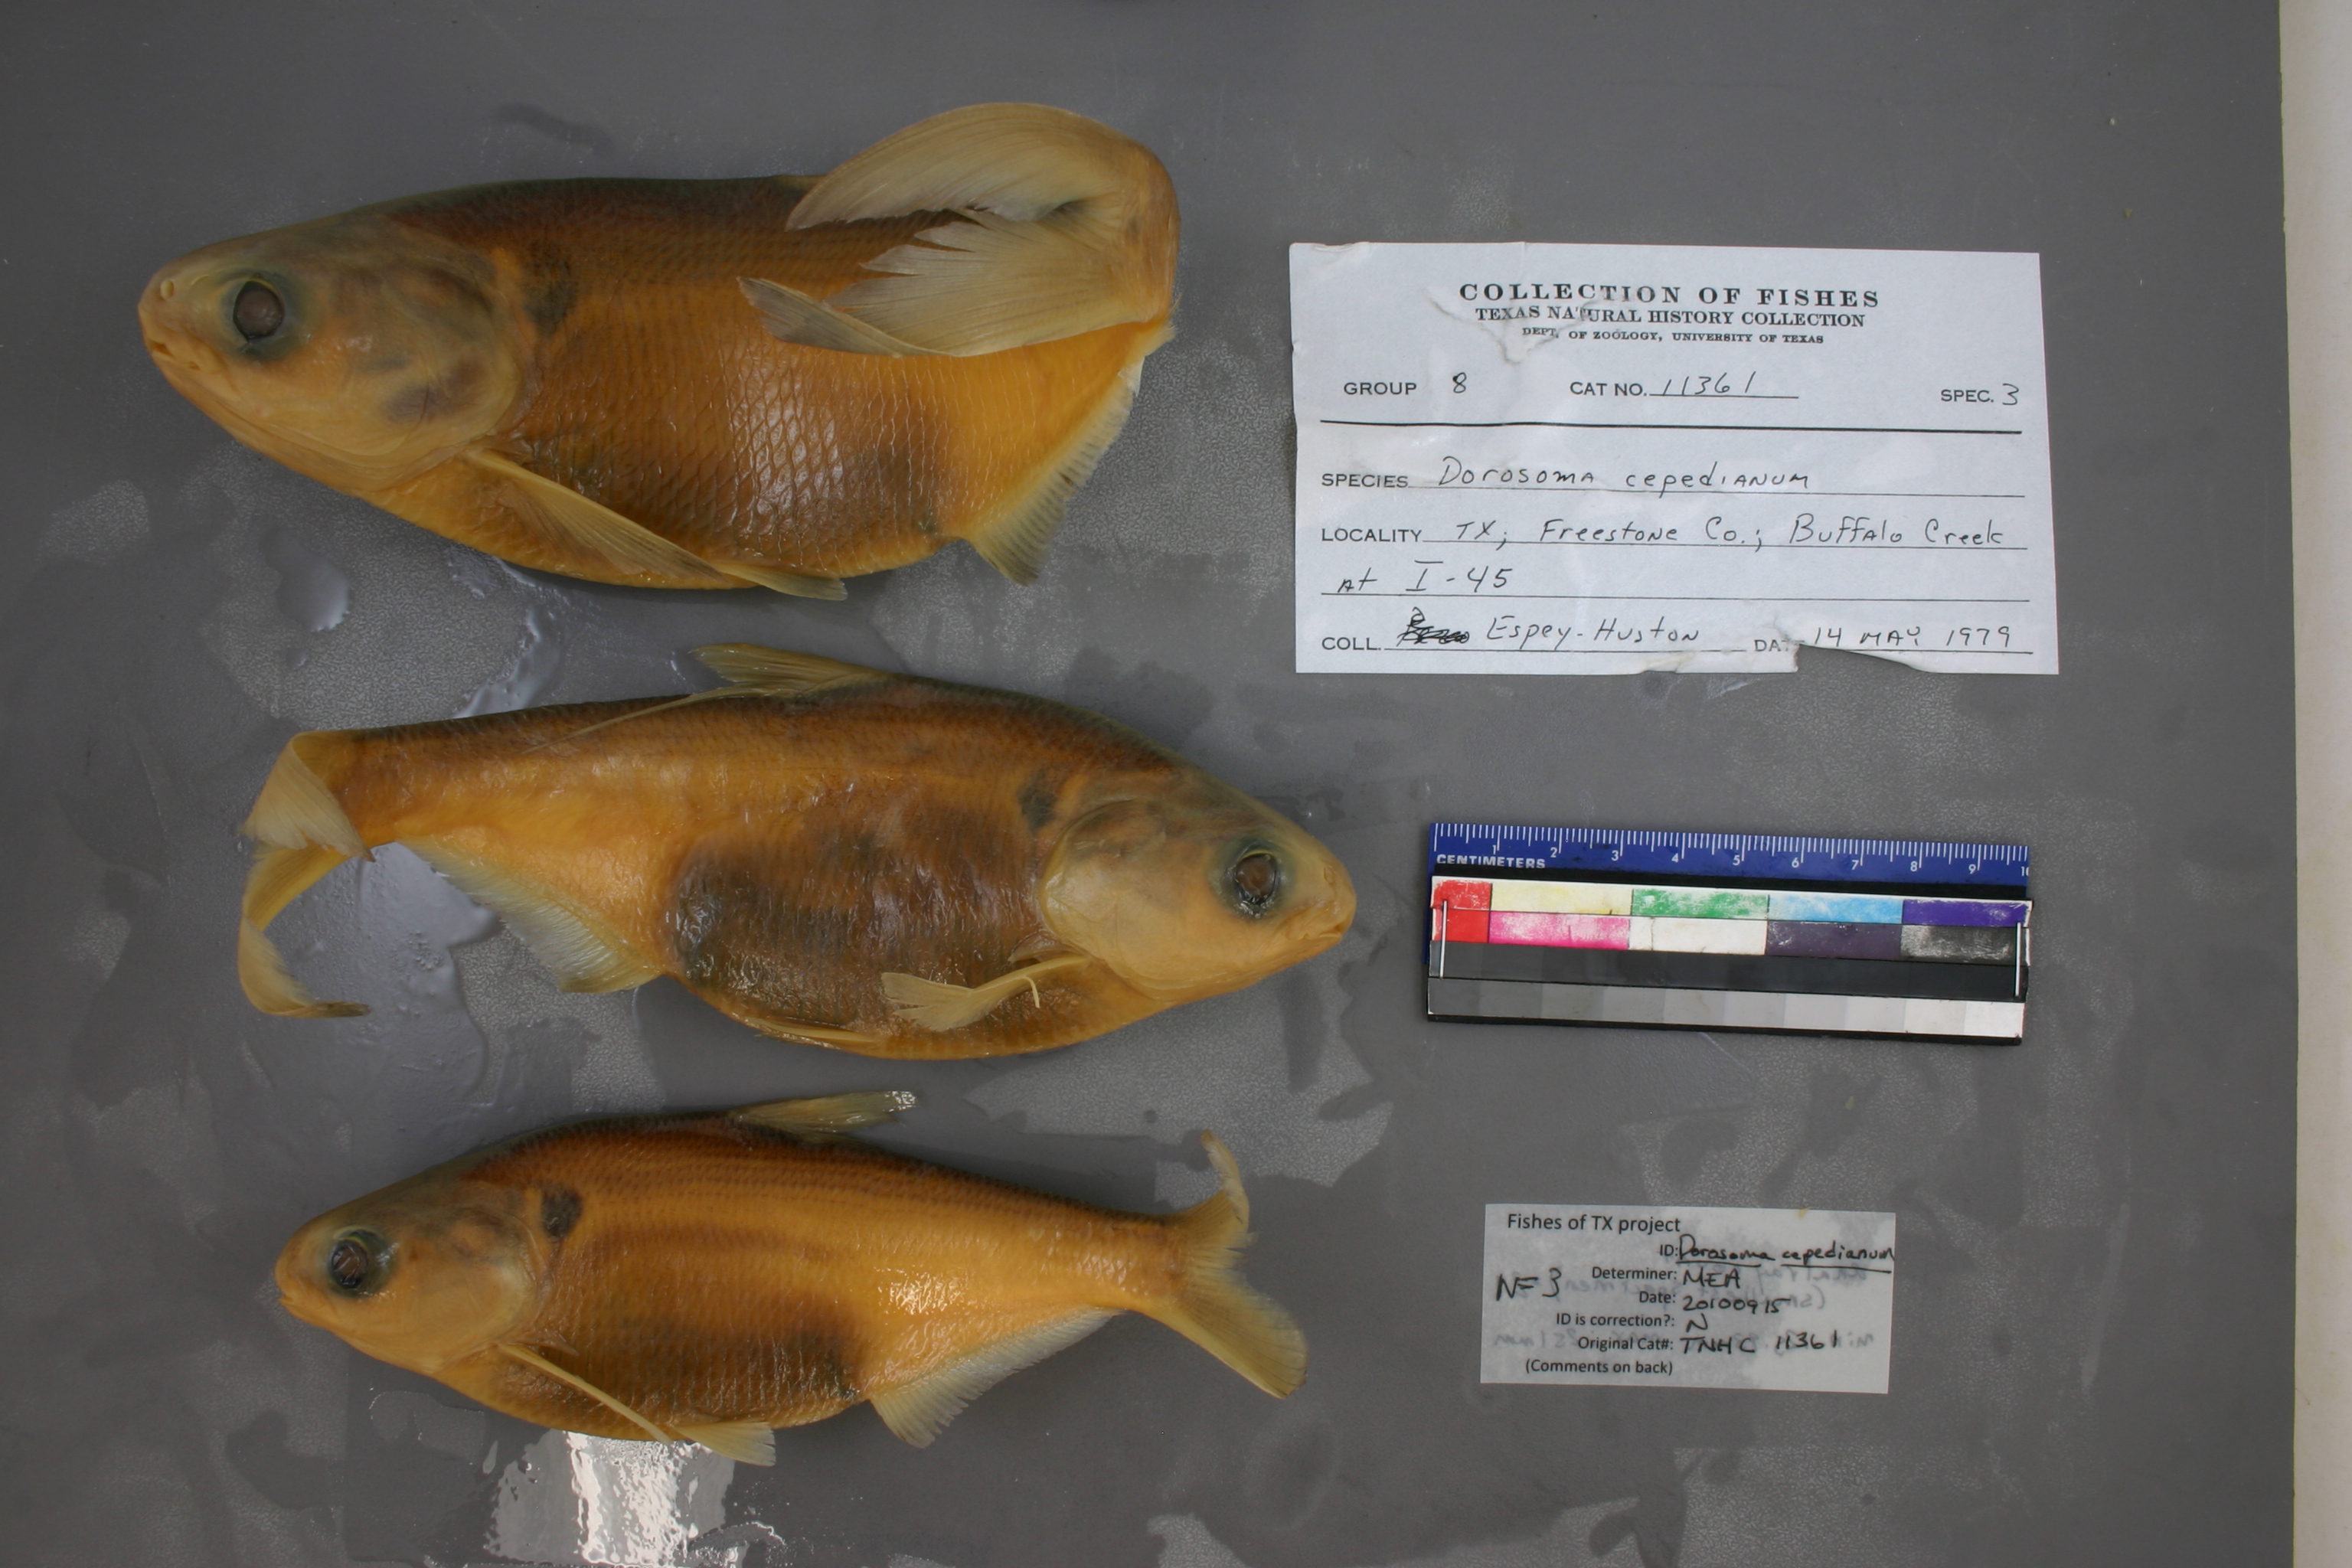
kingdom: Animalia
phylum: Chordata
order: Clupeiformes
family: Clupeidae
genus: Dorosoma
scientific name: Dorosoma cepedianum
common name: Gizzard shad
